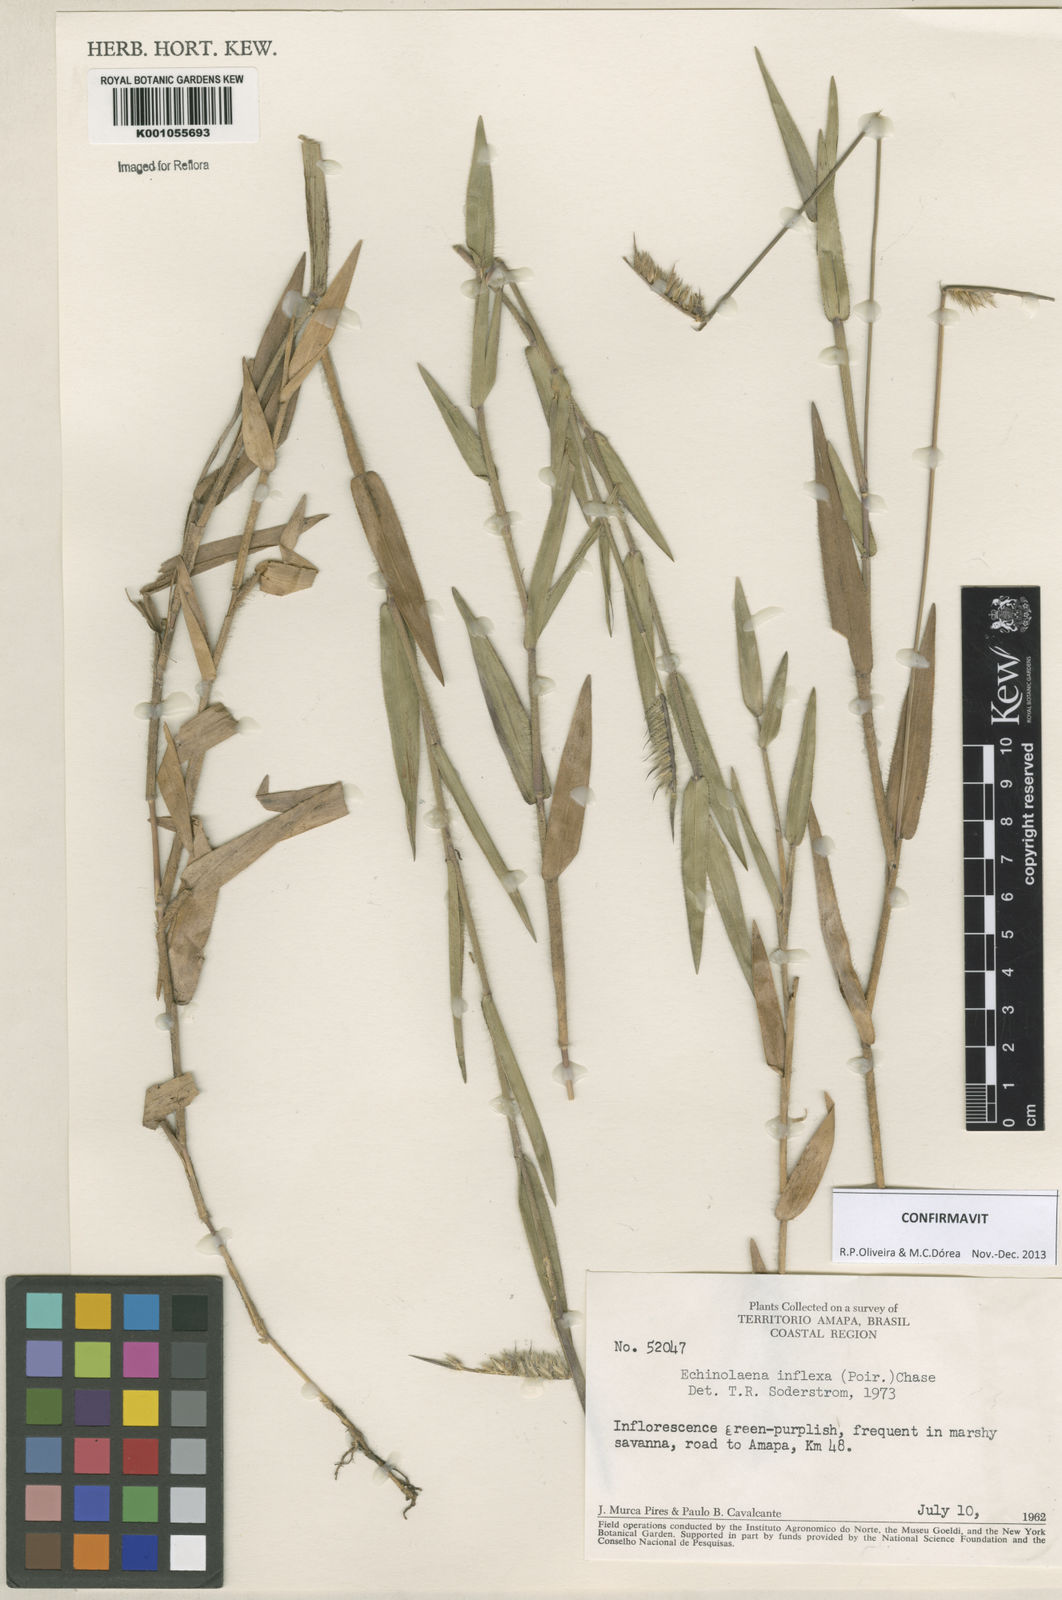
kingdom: Plantae
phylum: Tracheophyta
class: Liliopsida
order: Poales
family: Poaceae
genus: Echinolaena
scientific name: Echinolaena inflexa
